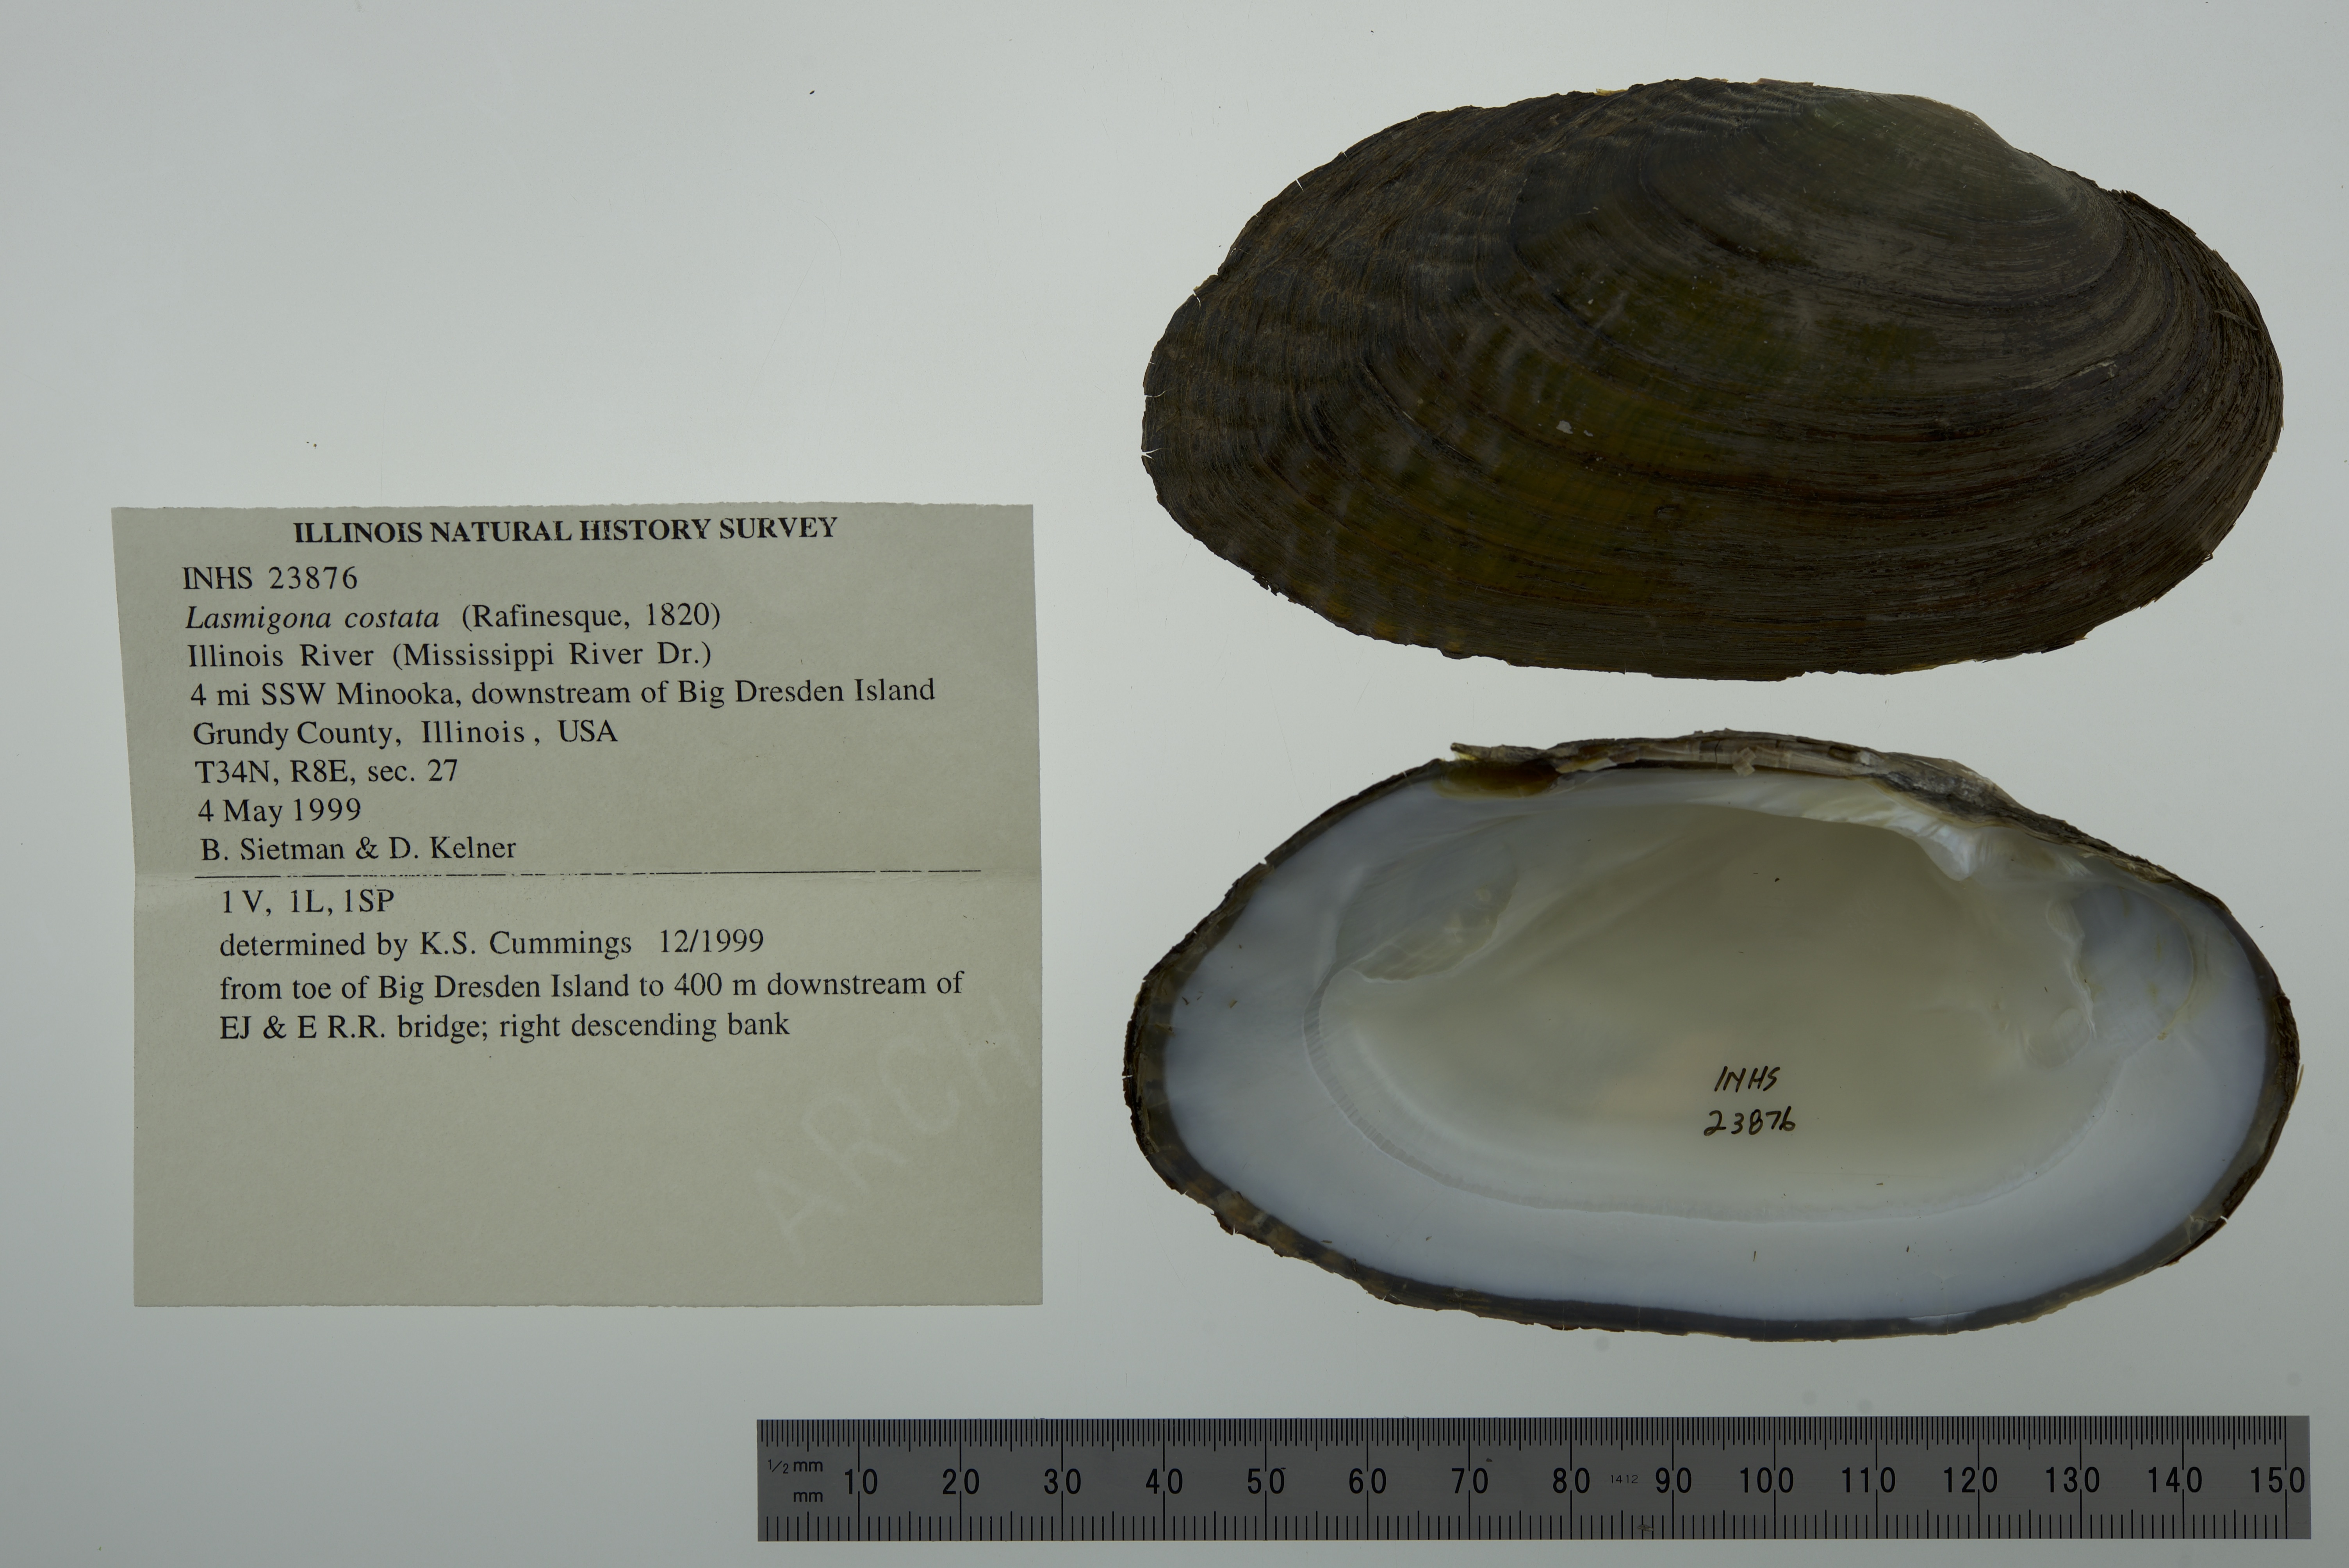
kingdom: Animalia
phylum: Mollusca
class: Bivalvia
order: Unionida
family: Unionidae
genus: Lasmigona
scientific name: Lasmigona costata
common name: Flutedshell
